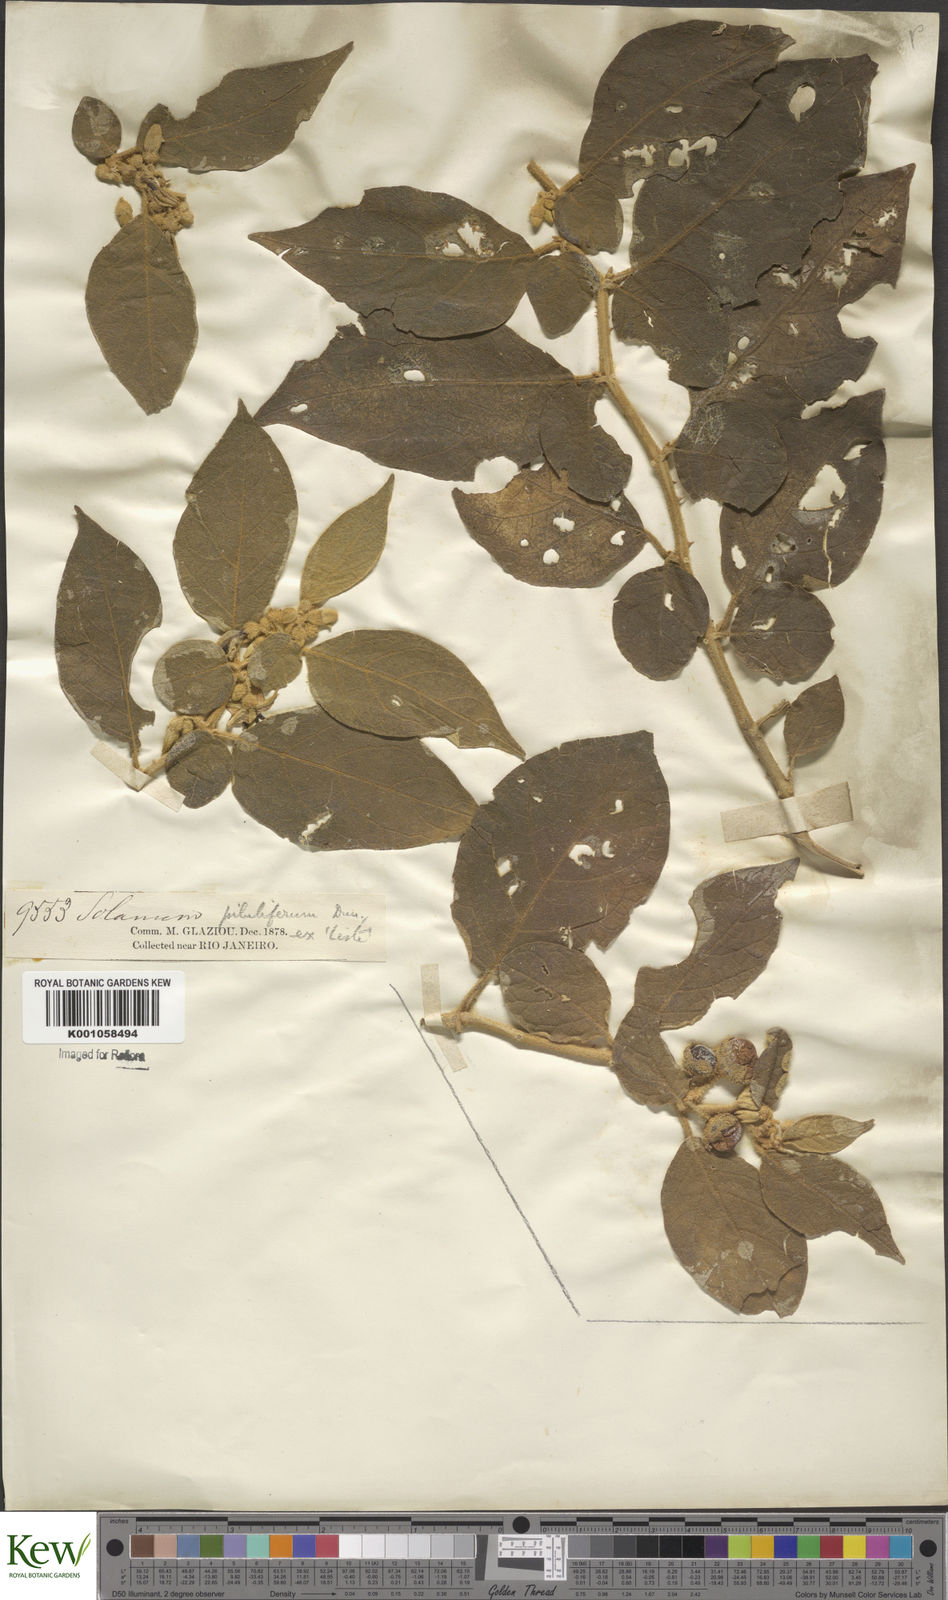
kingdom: Plantae
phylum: Tracheophyta
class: Magnoliopsida
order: Solanales
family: Solanaceae
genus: Solanum
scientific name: Solanum piluliferum
